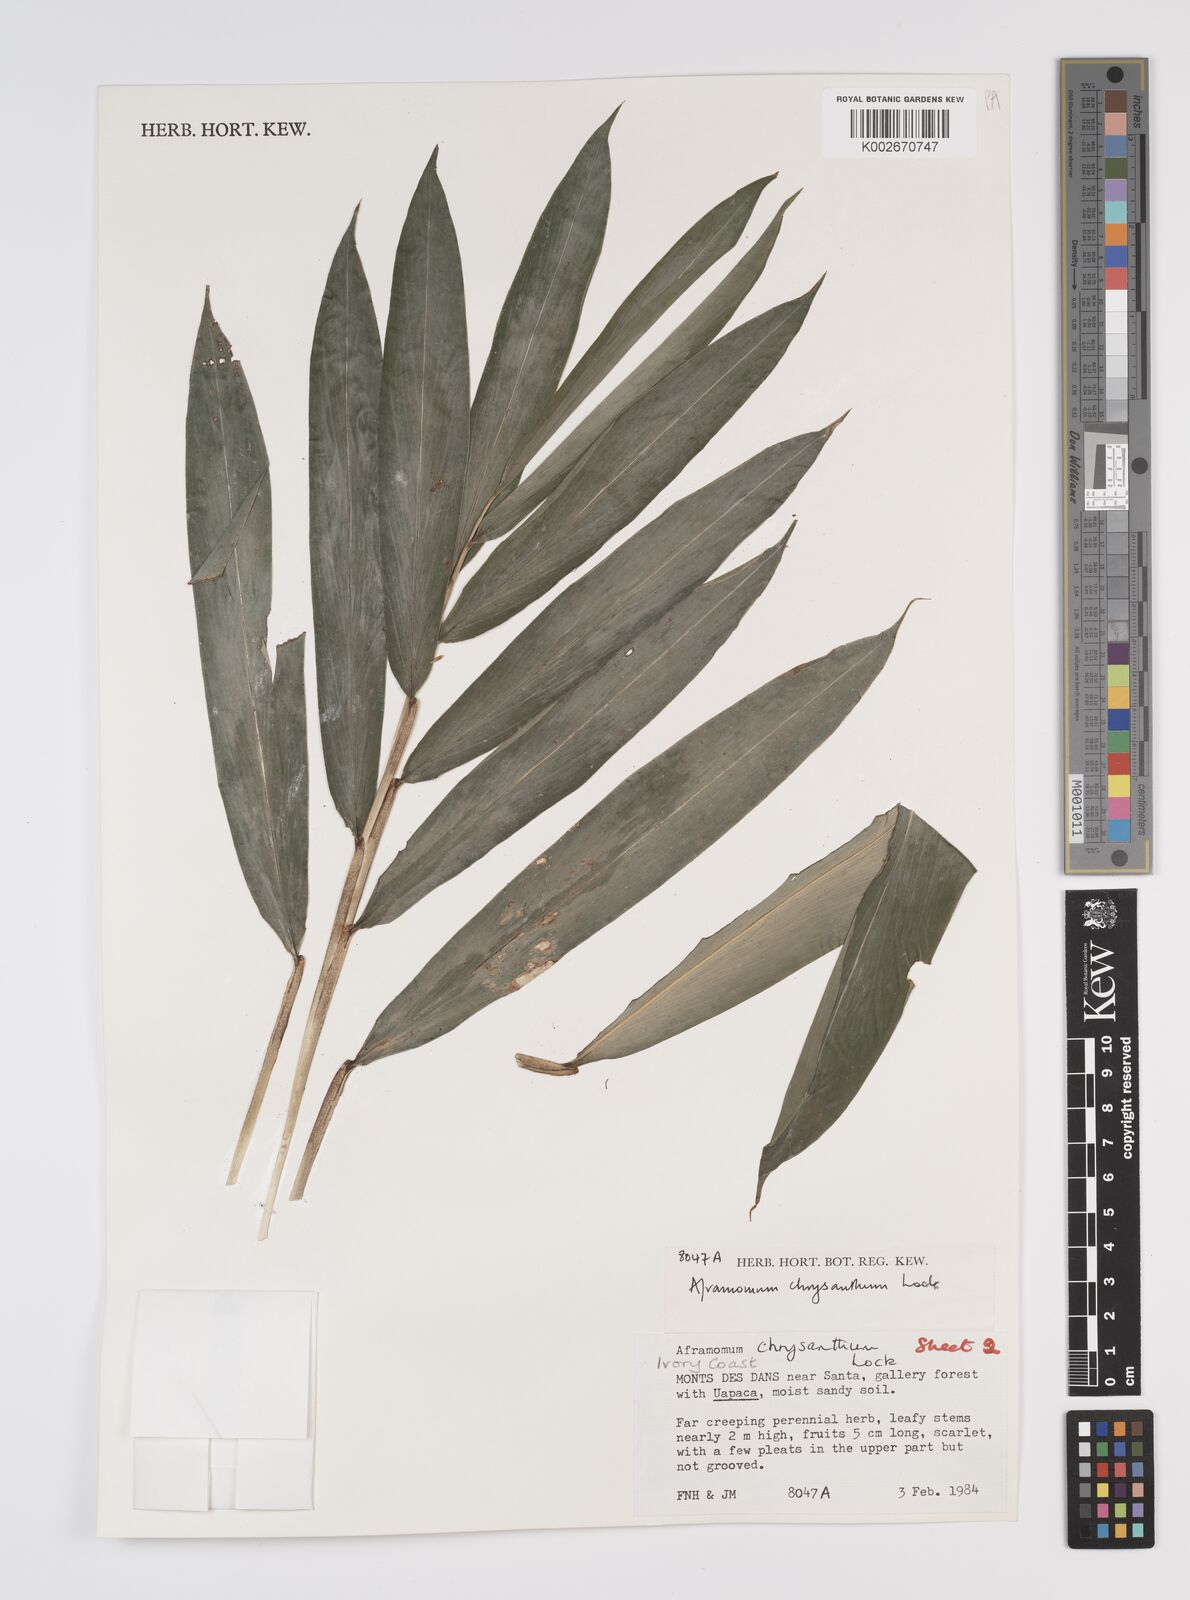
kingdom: Plantae
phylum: Tracheophyta
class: Liliopsida
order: Zingiberales
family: Zingiberaceae
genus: Aframomum
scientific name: Aframomum chrysanthum
